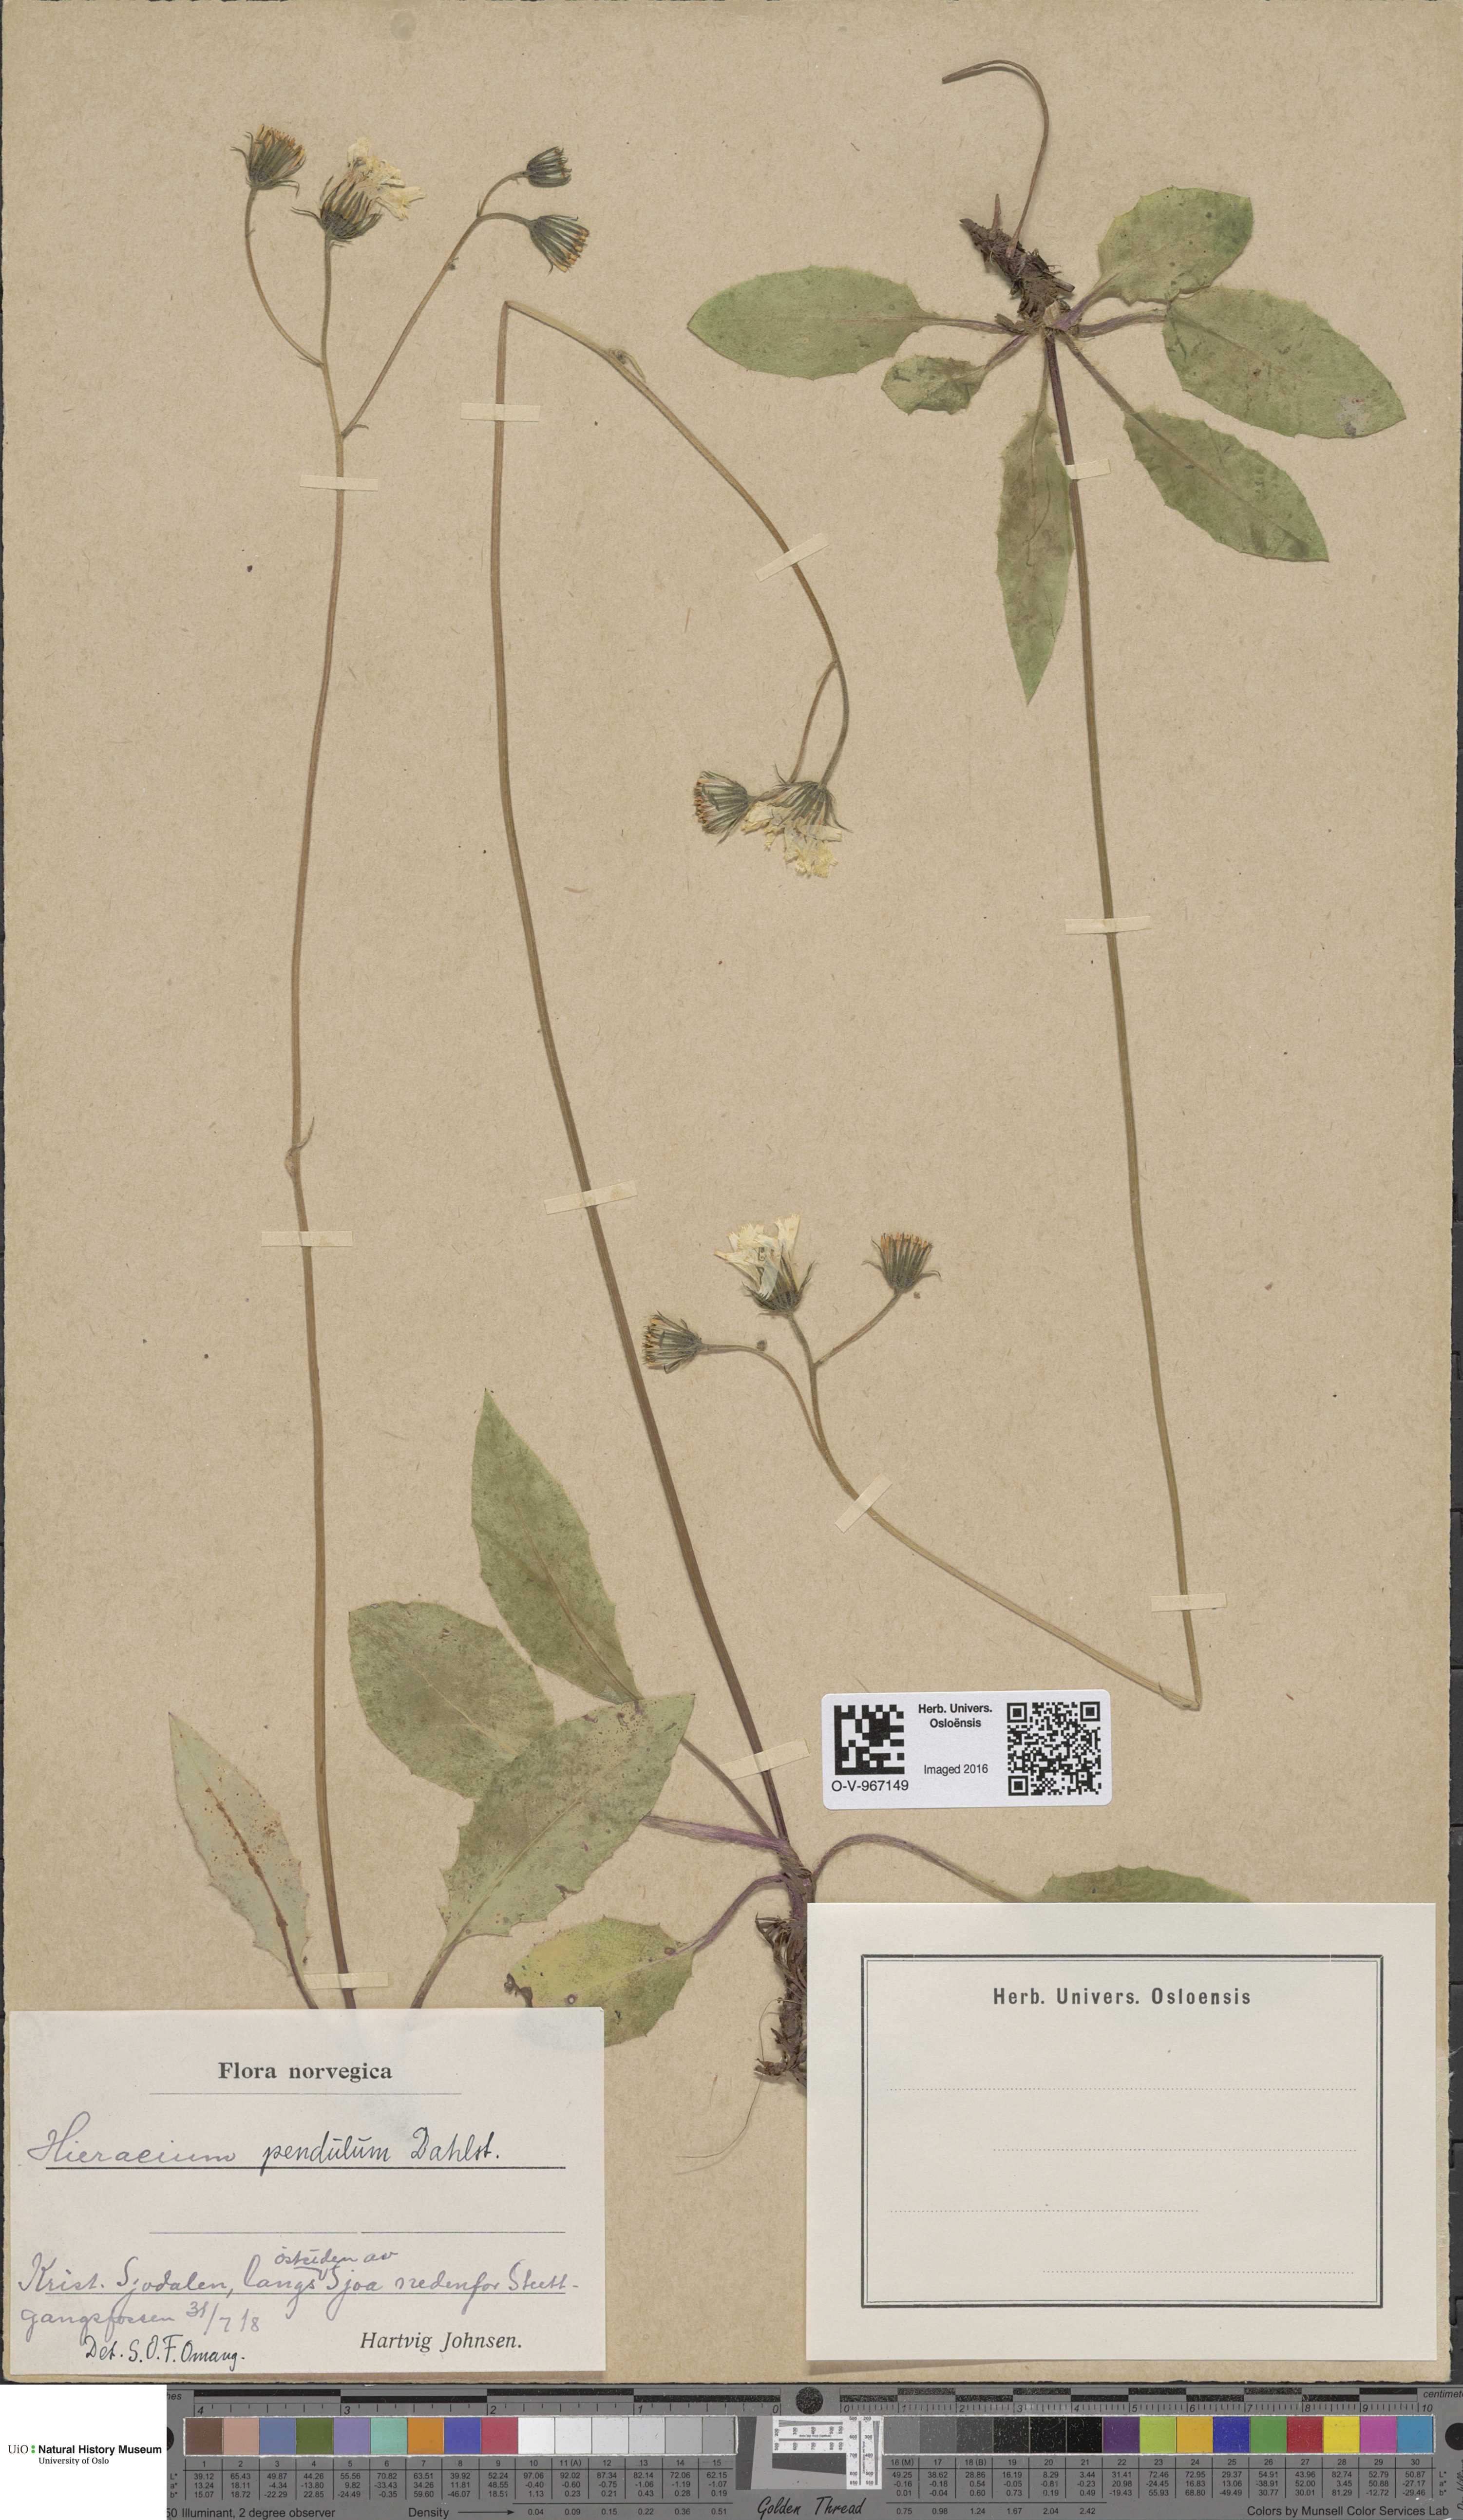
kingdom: Plantae
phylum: Tracheophyta
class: Magnoliopsida
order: Asterales
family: Asteraceae
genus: Hieracium
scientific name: Hieracium pendulum
